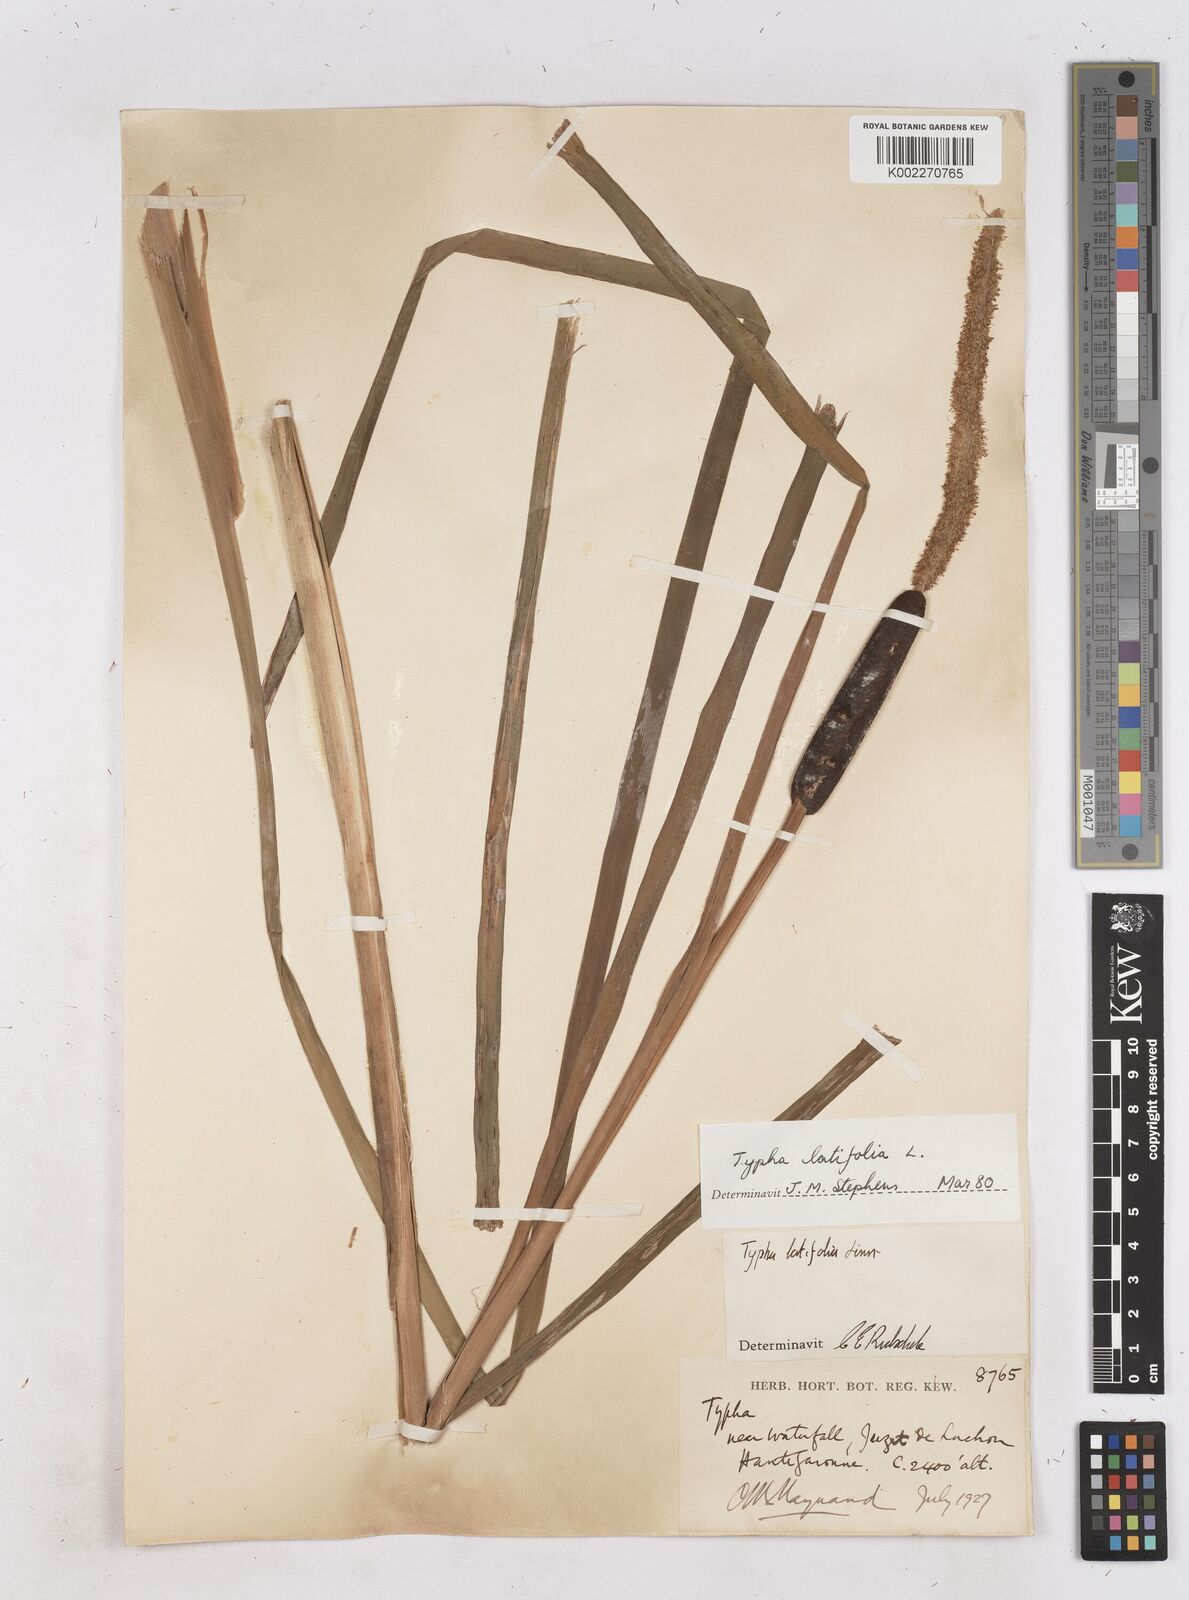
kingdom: Plantae
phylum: Tracheophyta
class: Liliopsida
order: Poales
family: Typhaceae
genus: Typha
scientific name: Typha latifolia
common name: Broadleaf cattail
